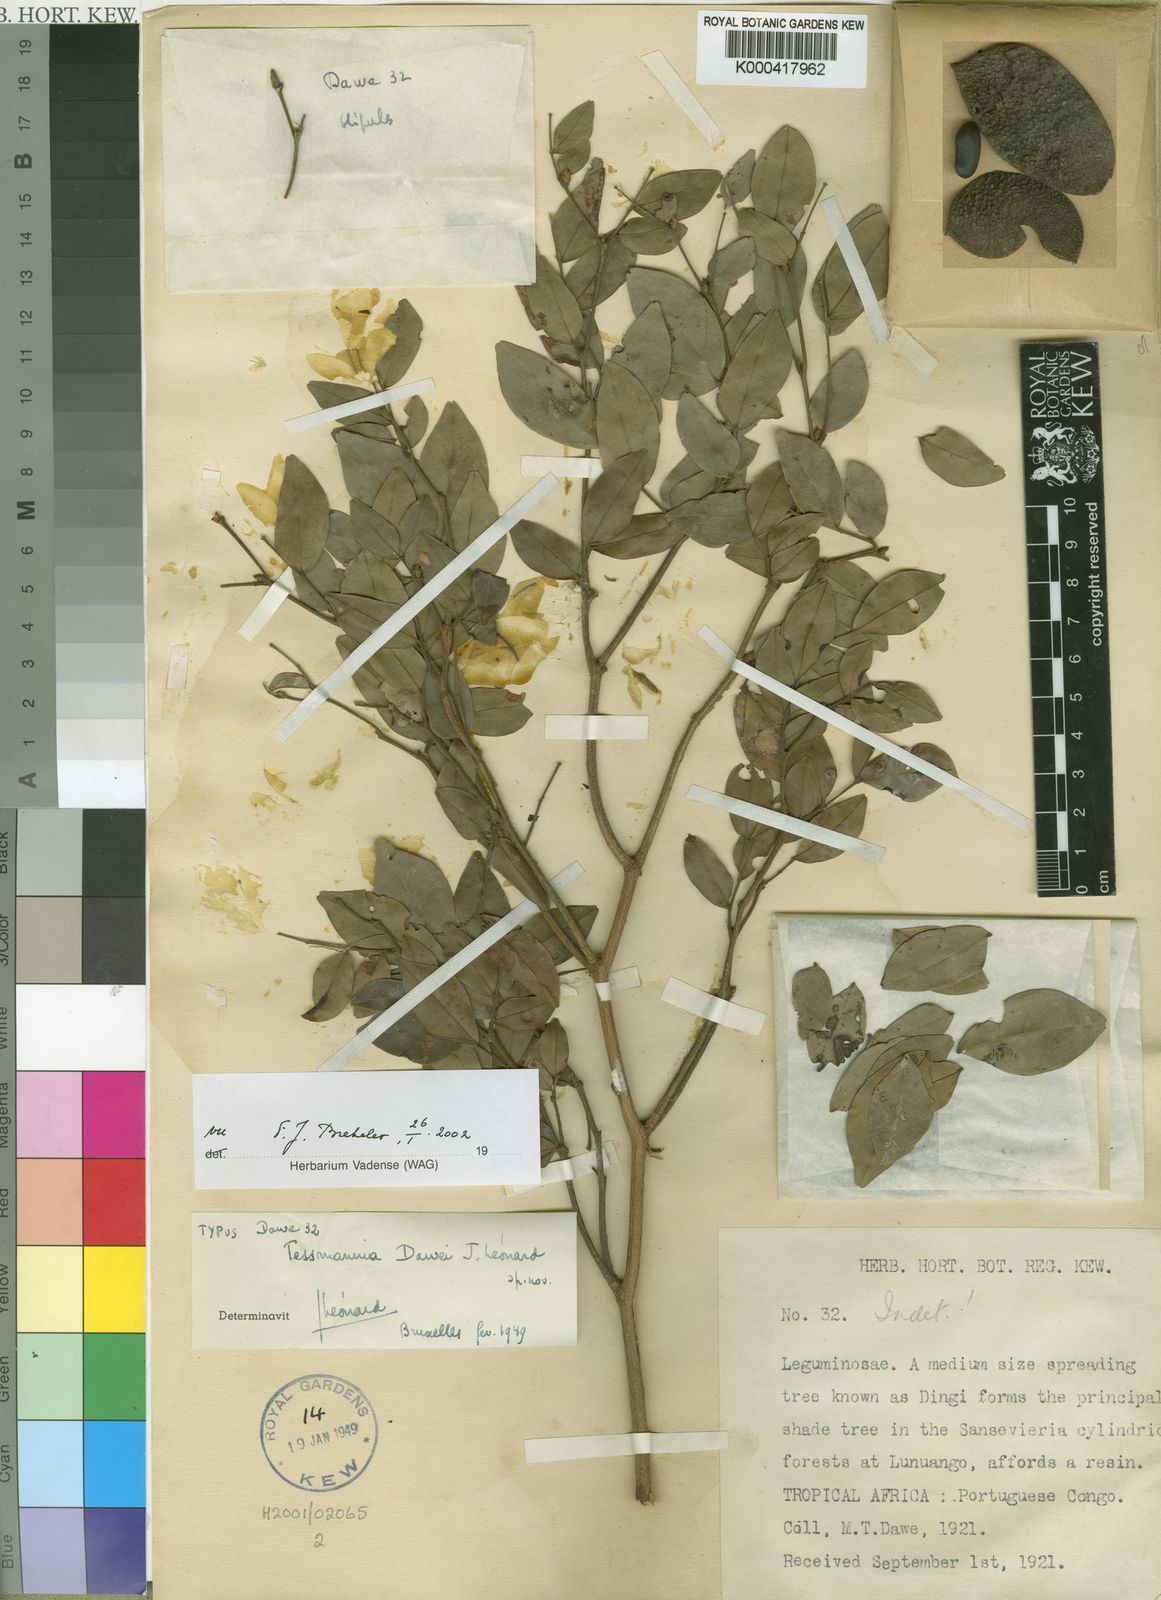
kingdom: Plantae
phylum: Tracheophyta
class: Magnoliopsida
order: Fabales
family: Fabaceae
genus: Tessmannia
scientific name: Tessmannia
